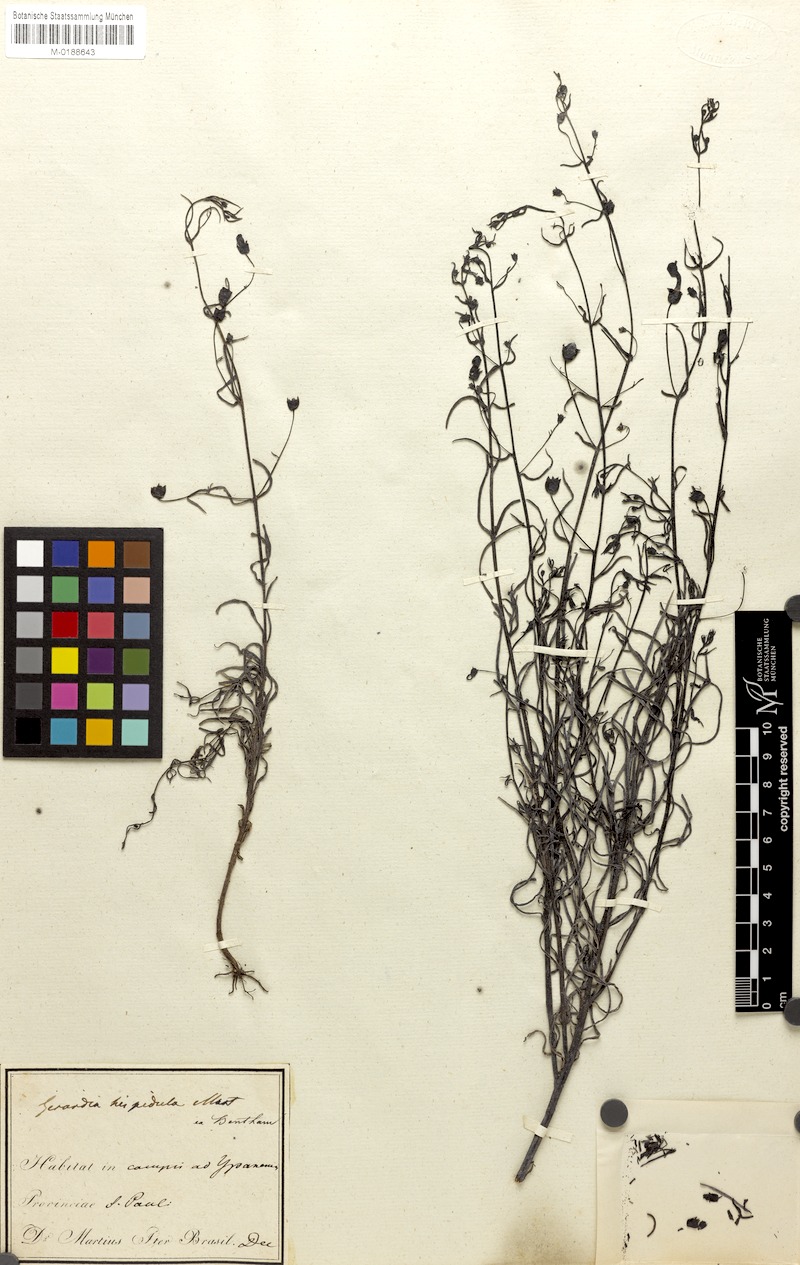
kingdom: Plantae
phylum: Tracheophyta
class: Magnoliopsida
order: Lamiales
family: Orobanchaceae
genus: Agalinis
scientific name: Agalinis hispidula
